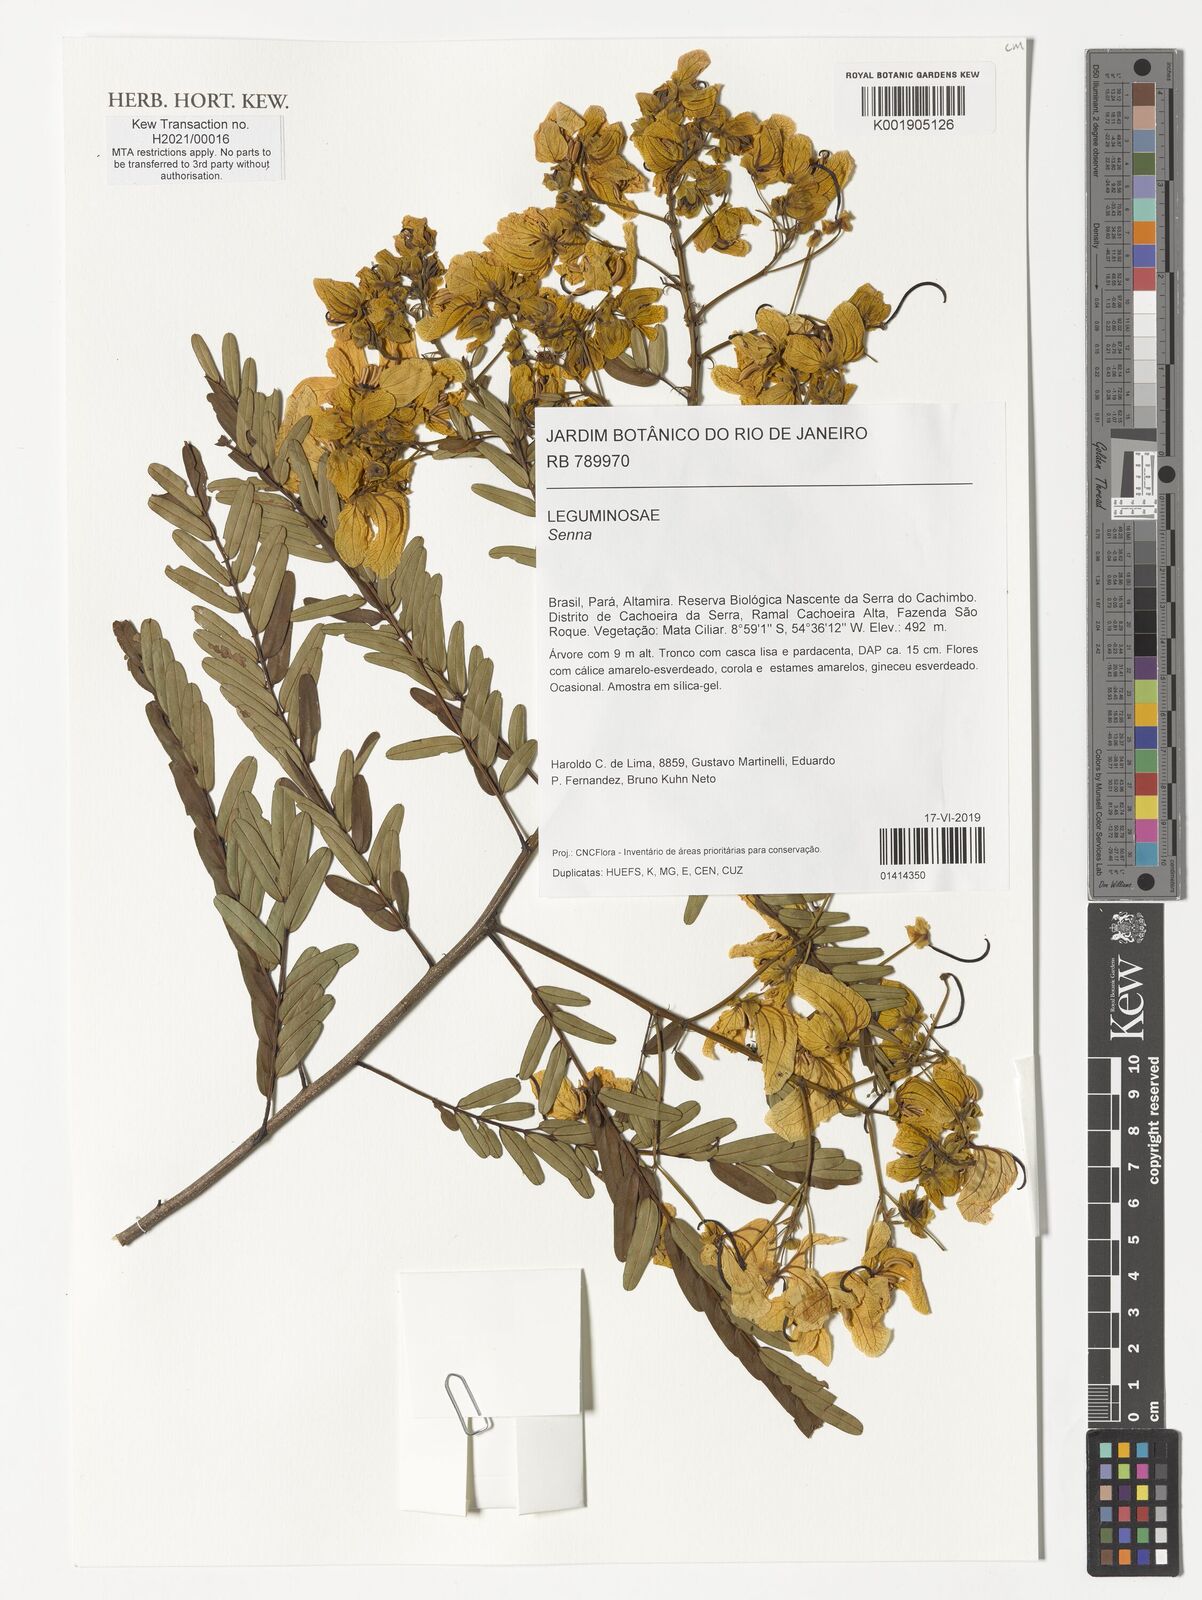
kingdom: Plantae
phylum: Tracheophyta
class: Magnoliopsida
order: Fabales
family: Fabaceae
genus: Senna
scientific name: Senna
